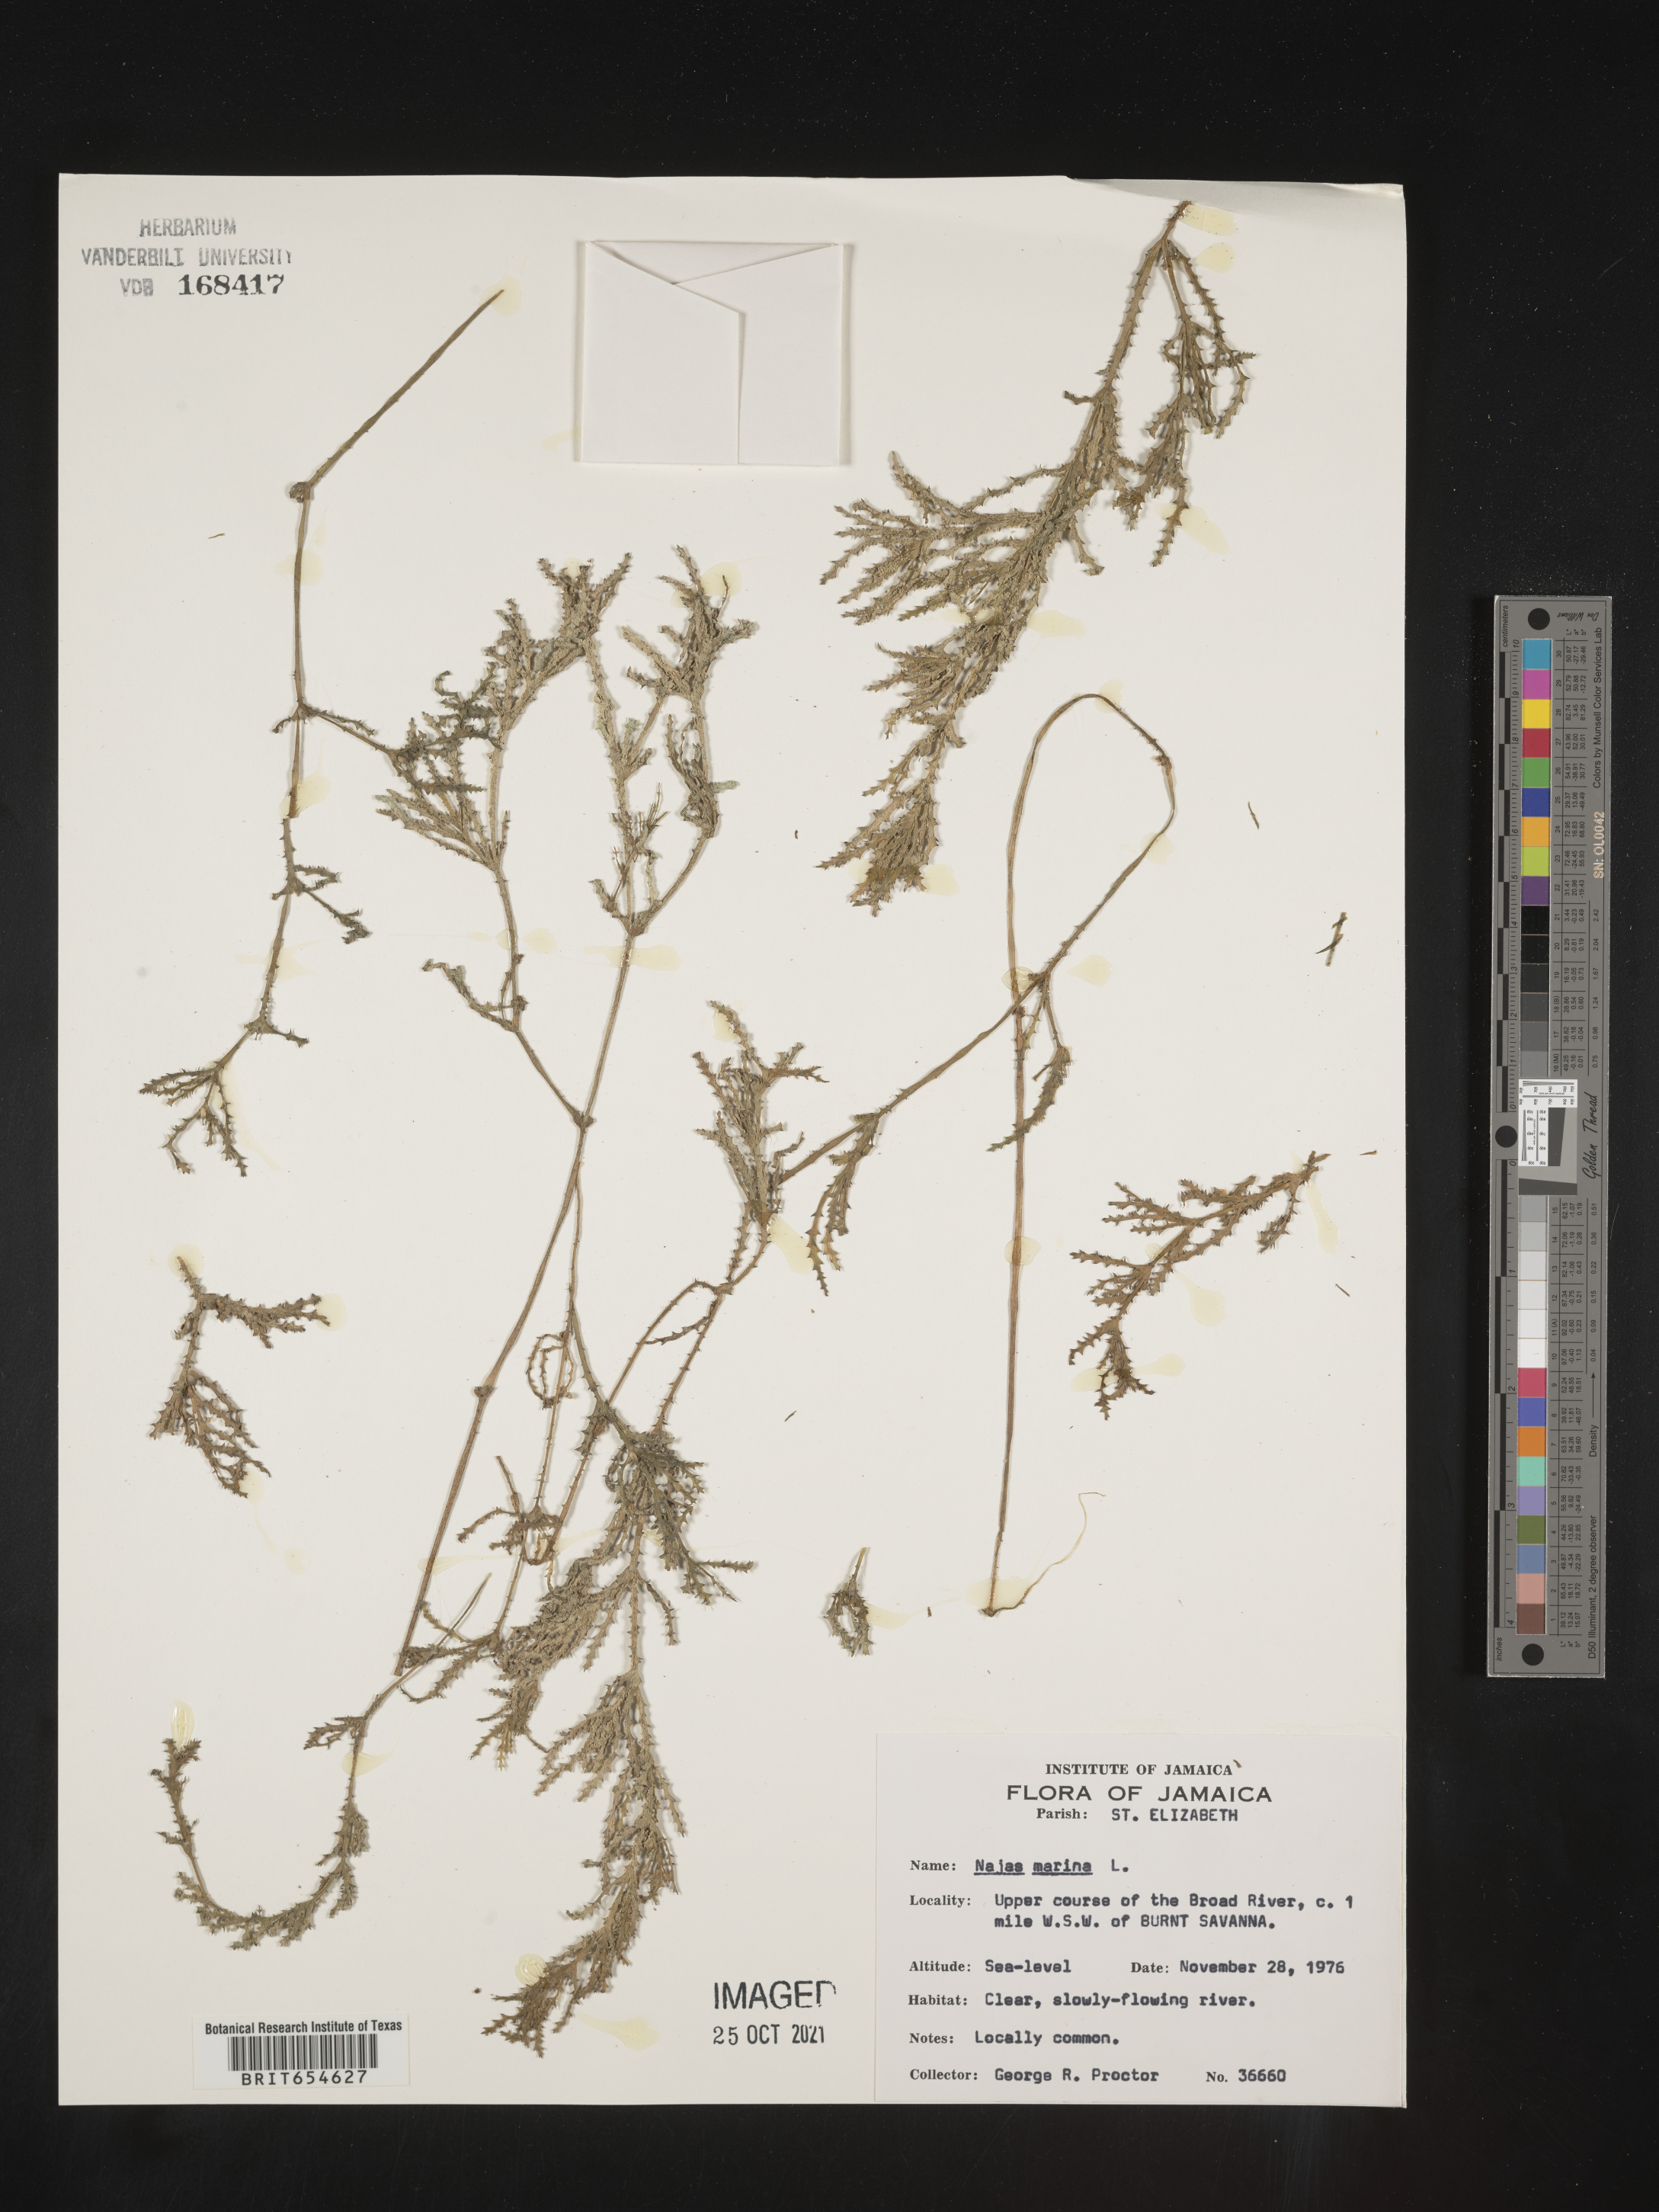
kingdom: Plantae
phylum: Tracheophyta
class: Liliopsida
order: Alismatales
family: Hydrocharitaceae
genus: Najas
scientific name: Najas
